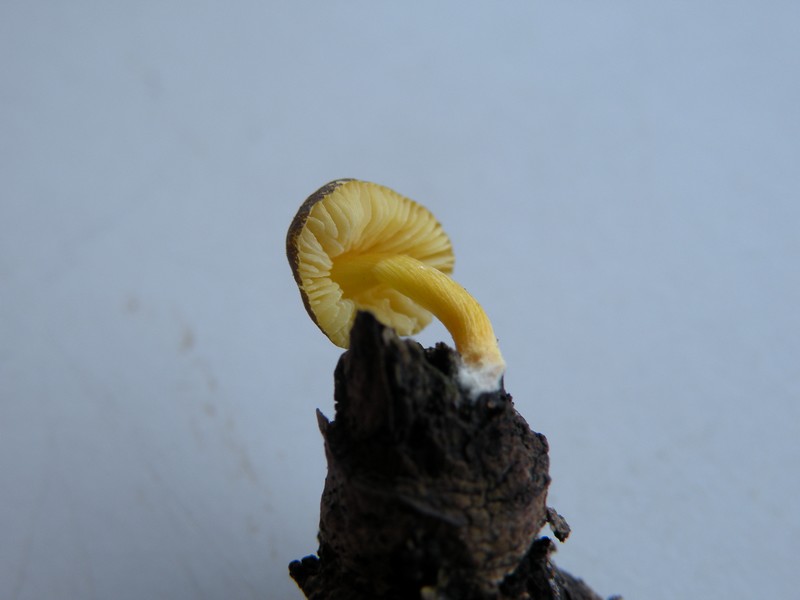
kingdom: Fungi
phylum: Basidiomycota
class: Agaricomycetes
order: Agaricales
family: Pluteaceae
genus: Pluteus
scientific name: Pluteus romellii
